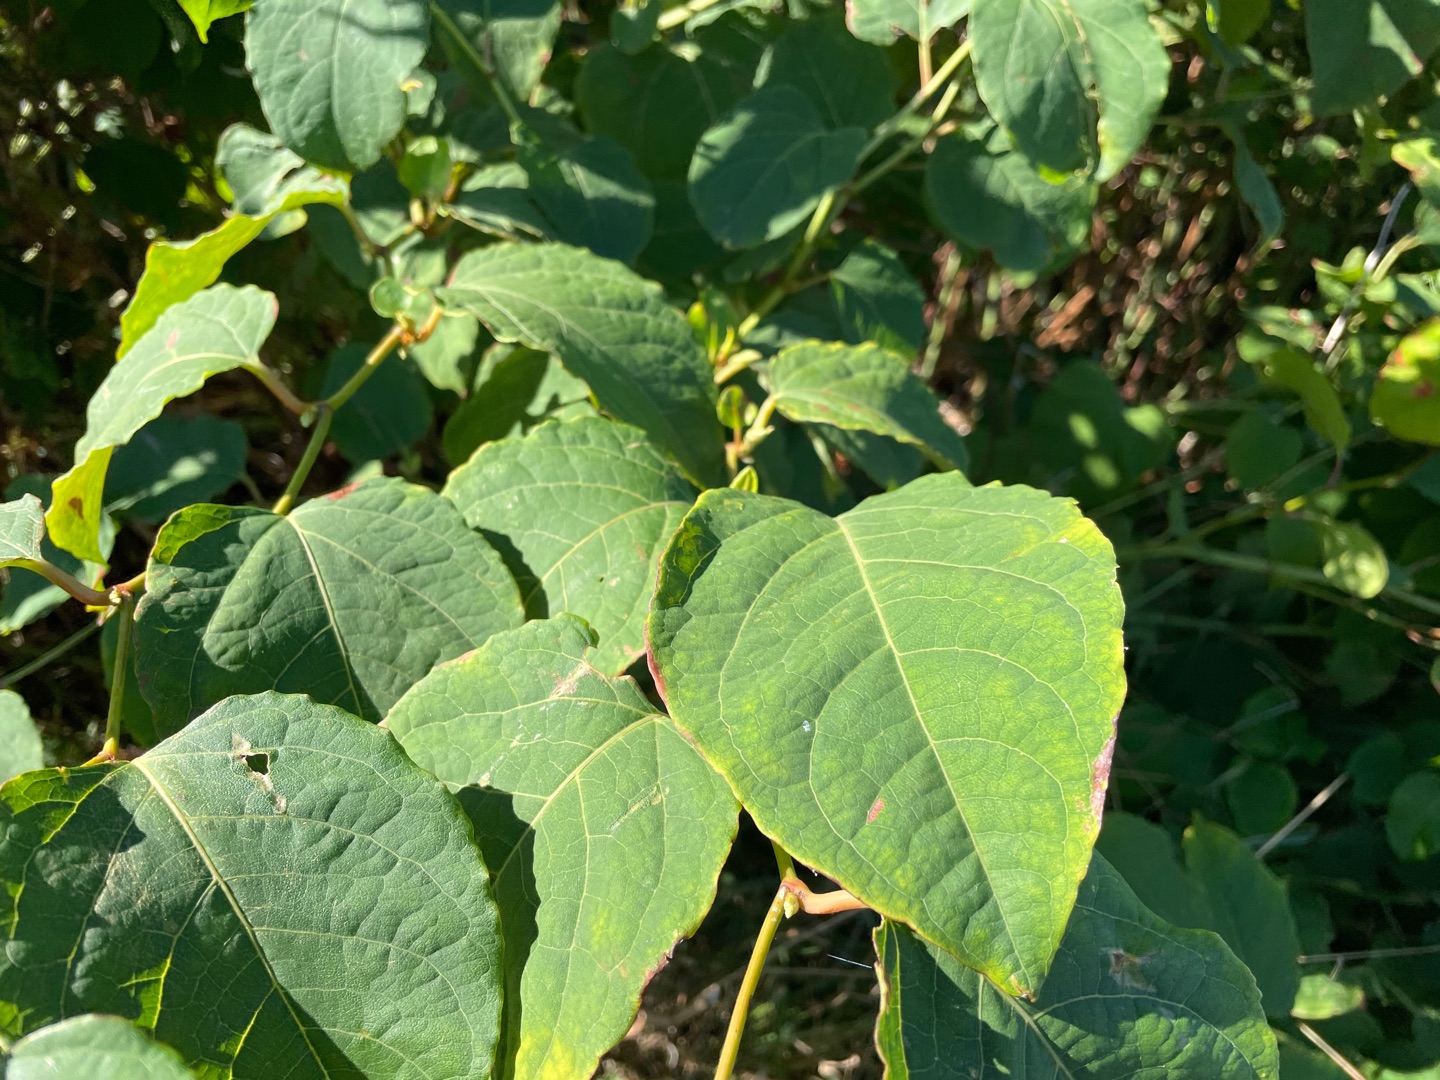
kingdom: Plantae
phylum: Tracheophyta
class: Magnoliopsida
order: Caryophyllales
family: Polygonaceae
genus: Reynoutria
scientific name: Reynoutria bohemica
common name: Hybrid-pileurt
